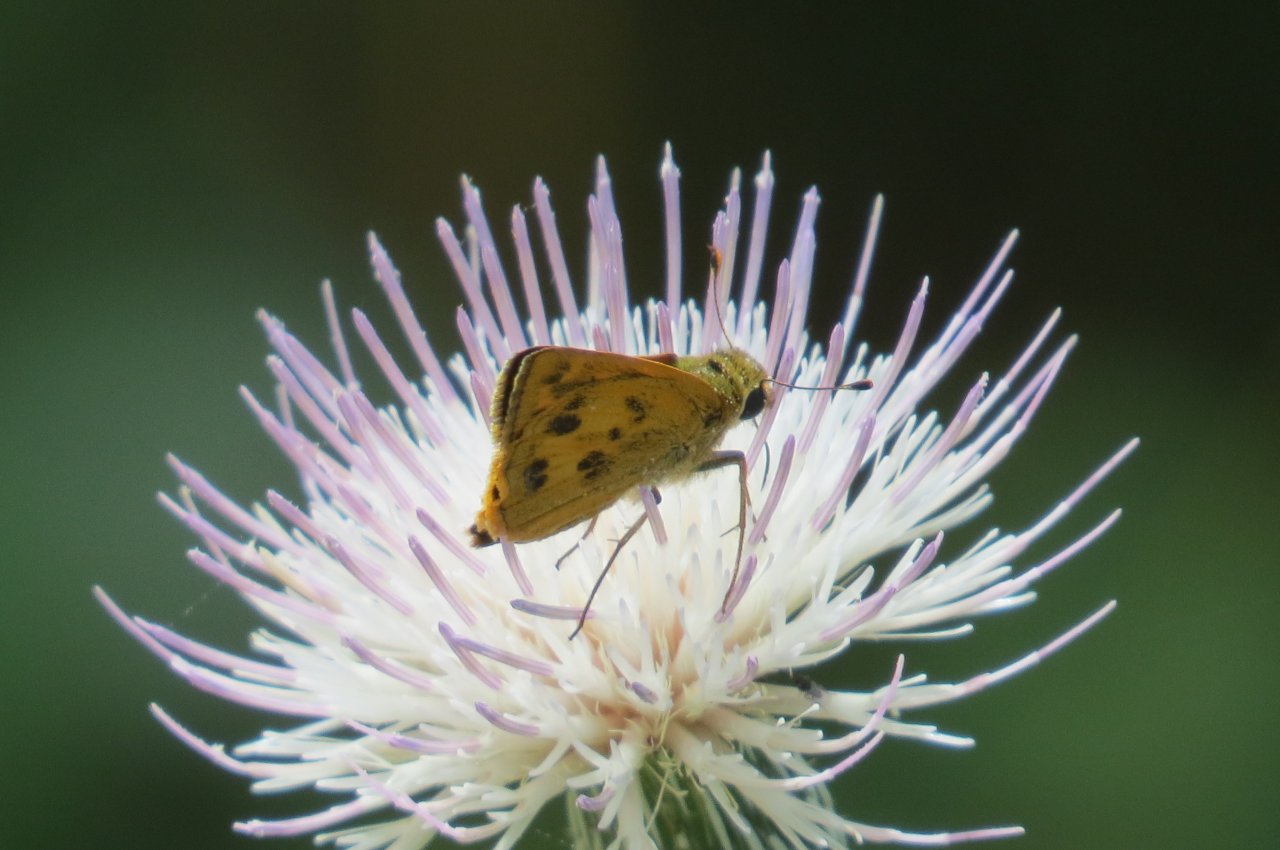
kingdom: Animalia
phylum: Arthropoda
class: Insecta
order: Lepidoptera
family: Hesperiidae
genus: Polites
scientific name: Polites vibex
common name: Whirlabout
